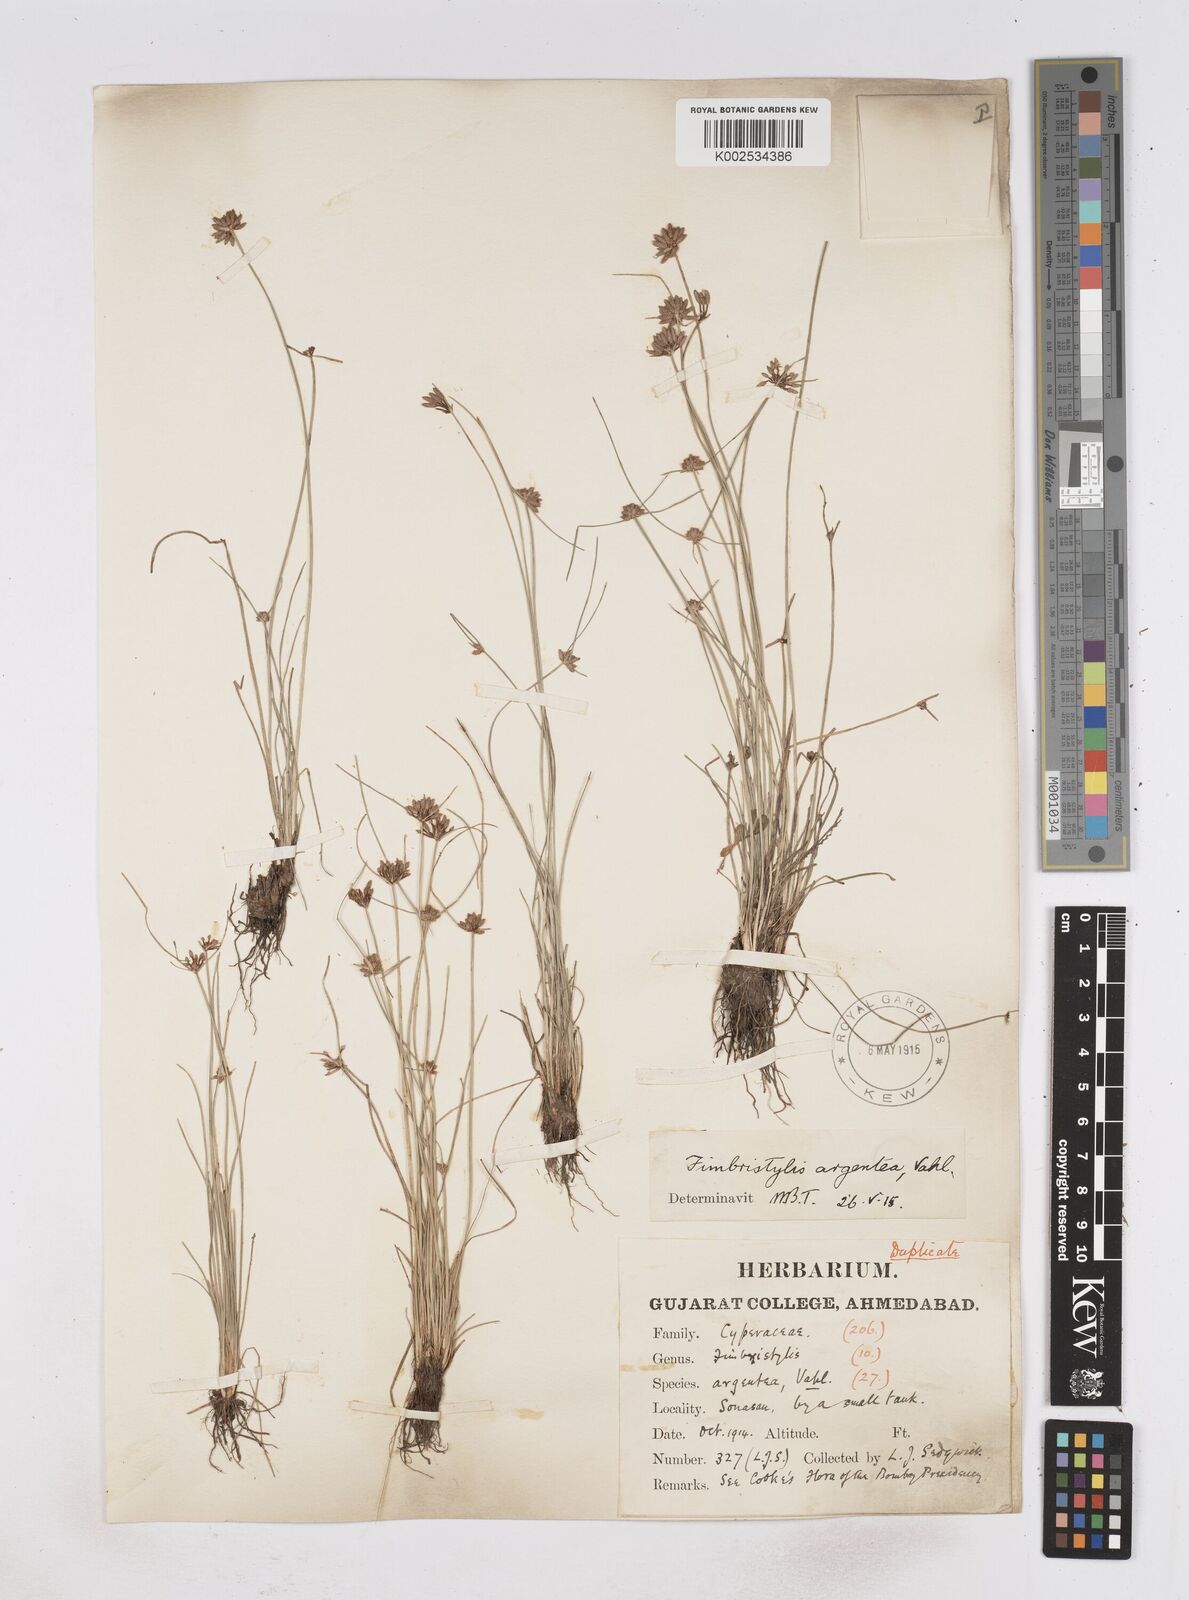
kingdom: Plantae
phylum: Tracheophyta
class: Liliopsida
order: Poales
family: Cyperaceae
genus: Fimbristylis
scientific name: Fimbristylis argentea
